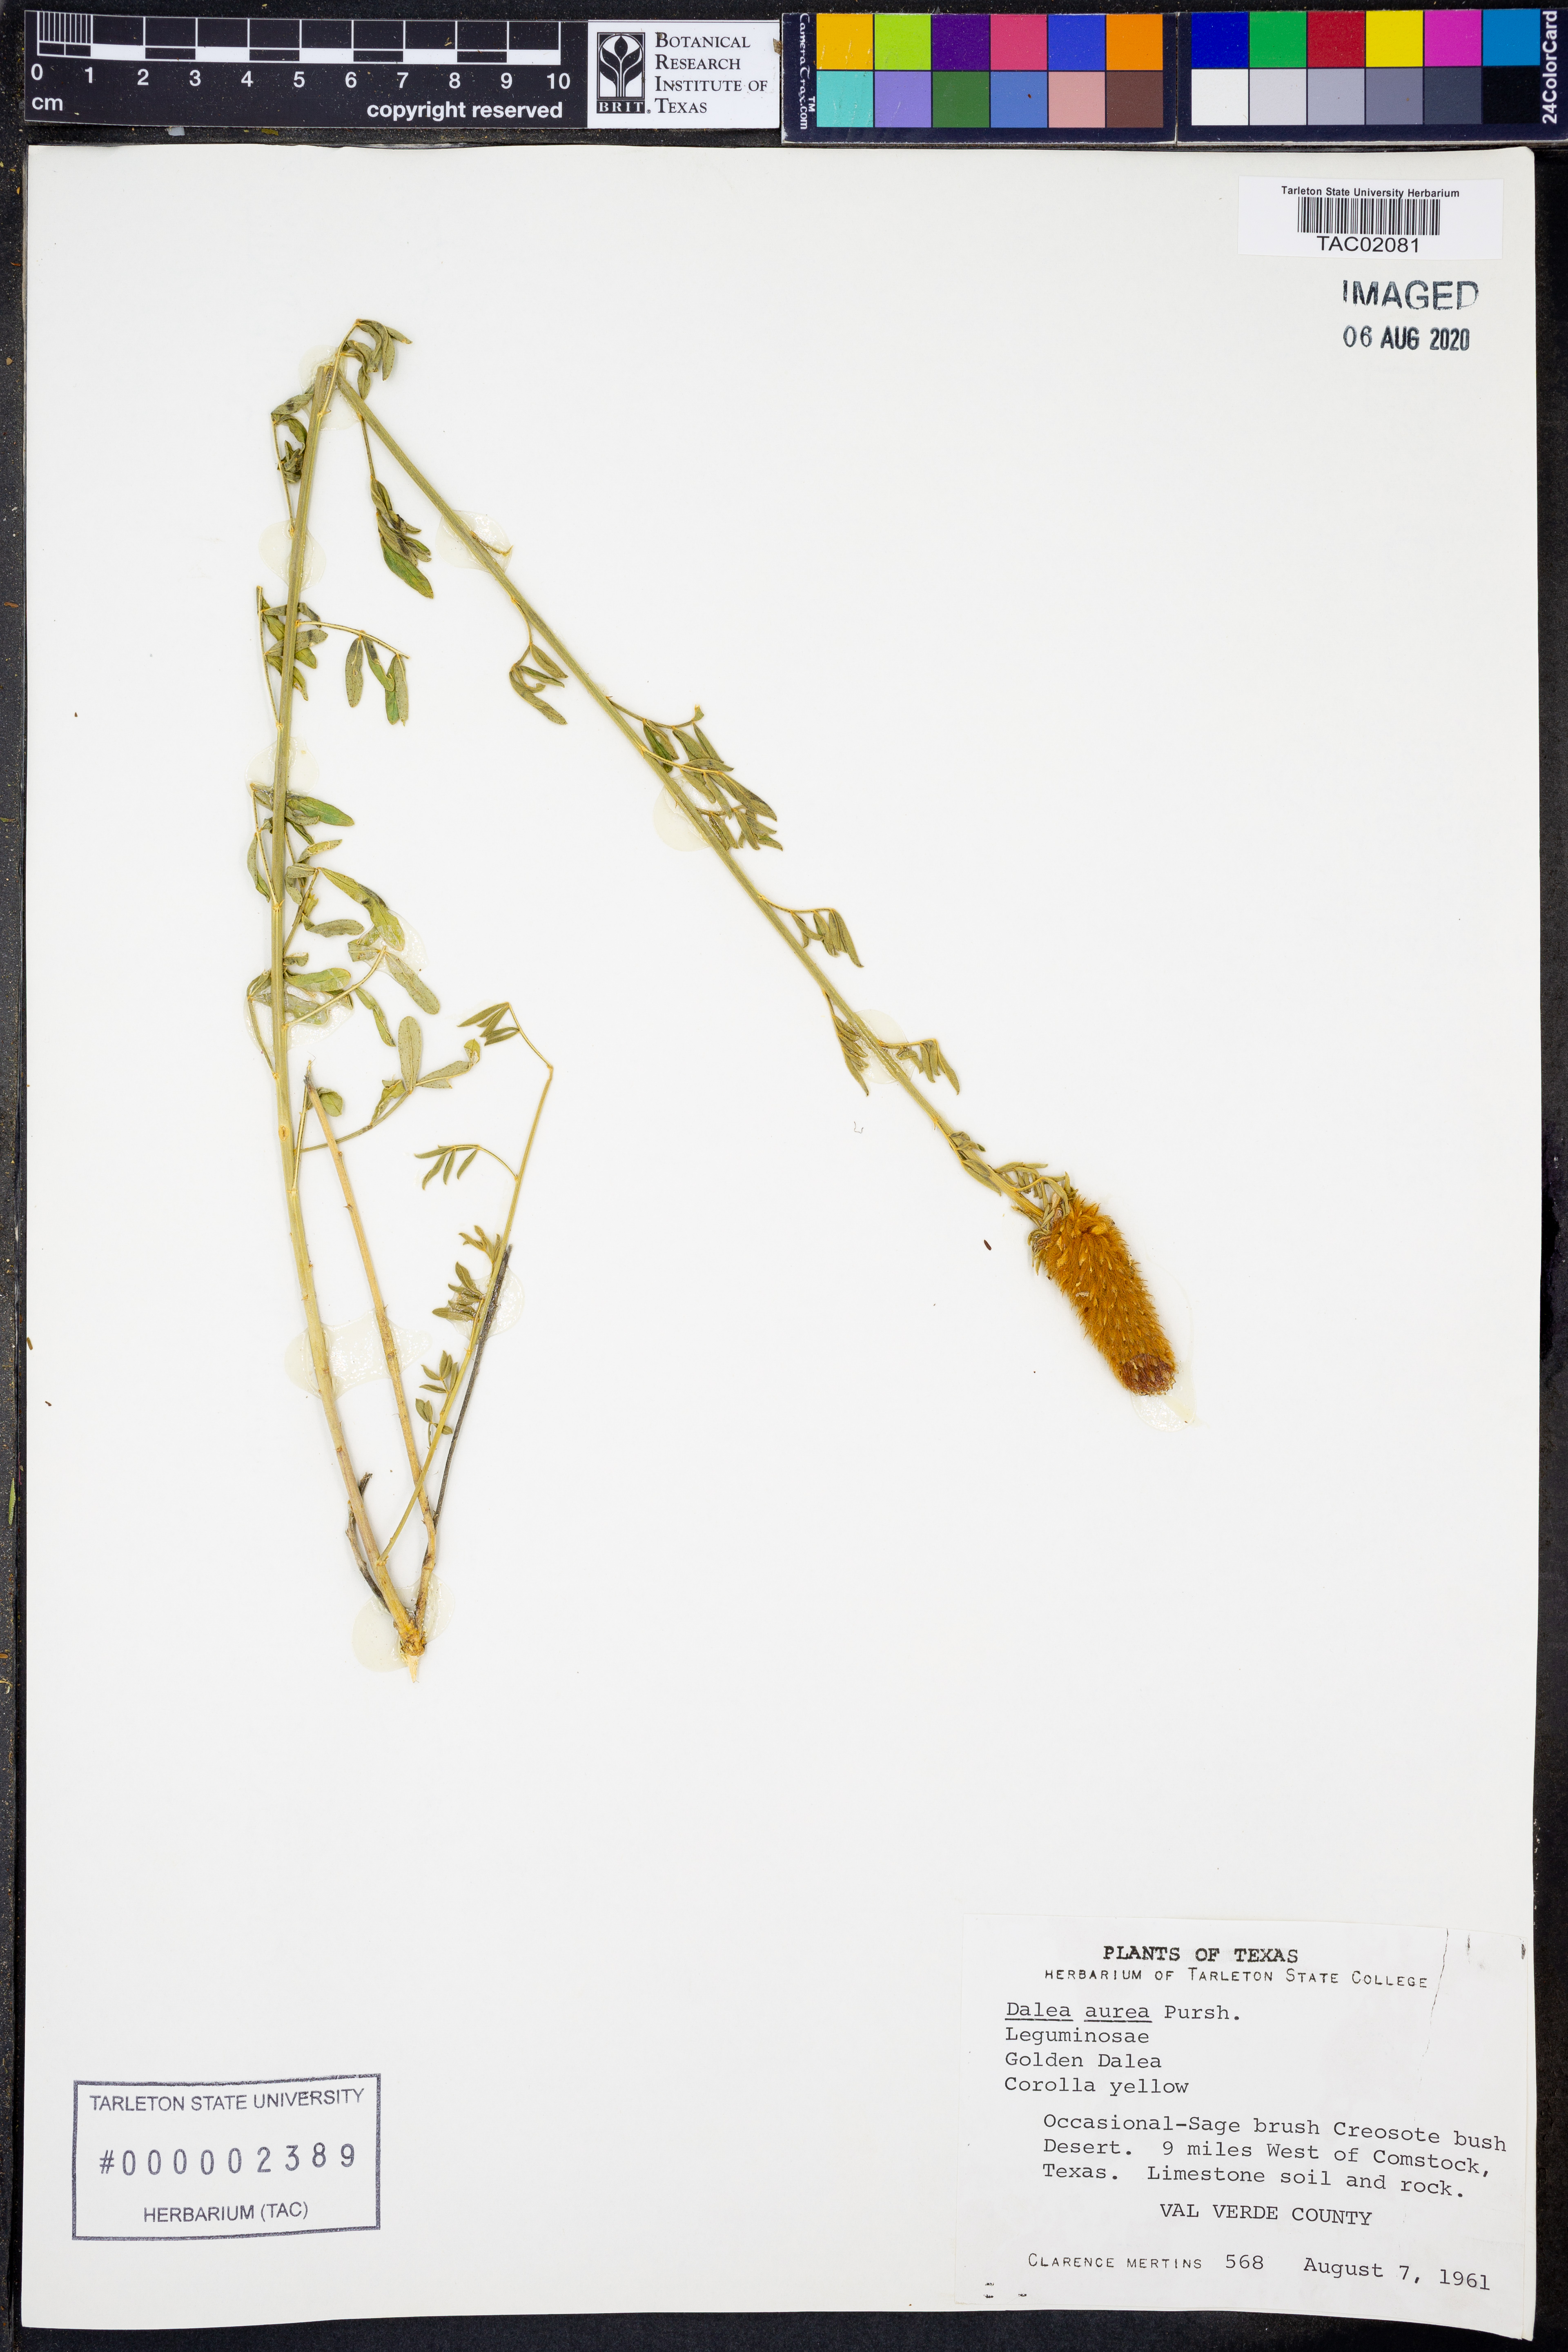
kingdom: Plantae
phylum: Tracheophyta
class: Magnoliopsida
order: Fabales
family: Fabaceae
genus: Dalea
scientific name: Dalea aurea
